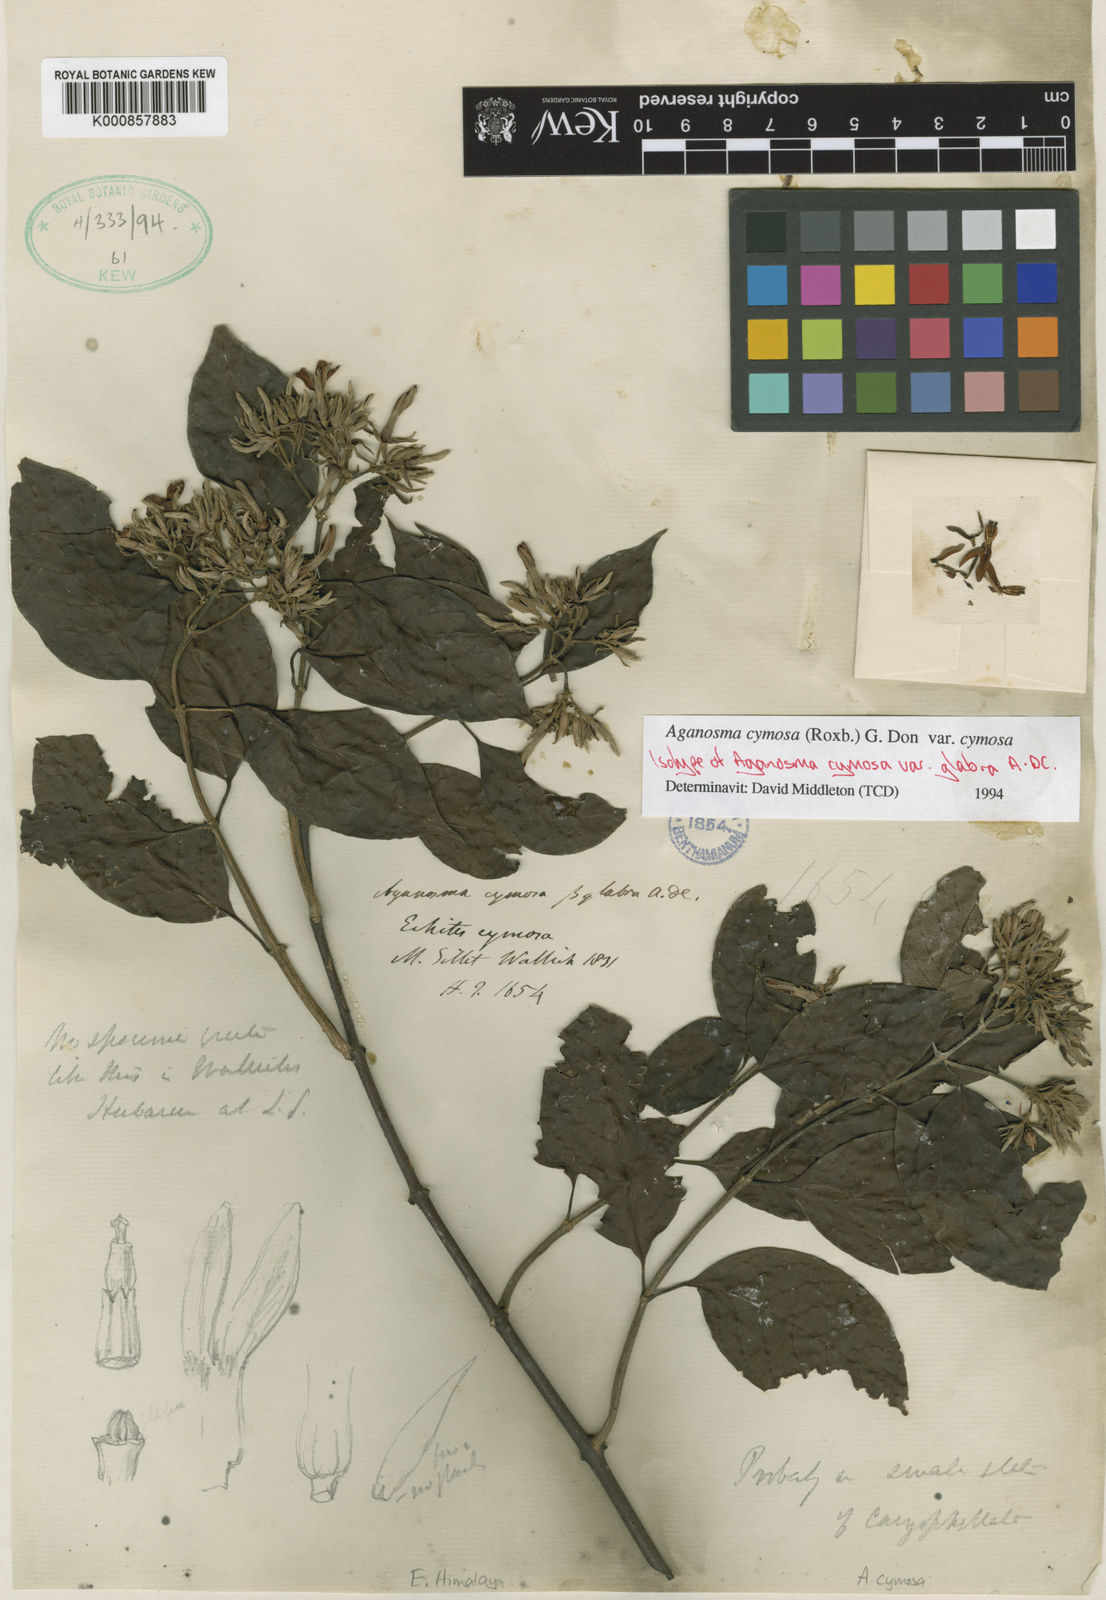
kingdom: Plantae
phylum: Tracheophyta
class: Magnoliopsida
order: Gentianales
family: Apocynaceae
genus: Aganosma
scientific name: Aganosma cymosa
